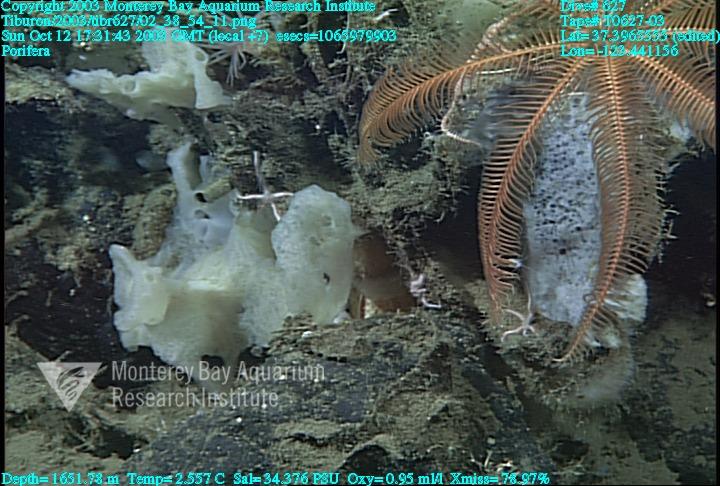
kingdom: Animalia
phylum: Porifera
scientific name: Porifera
